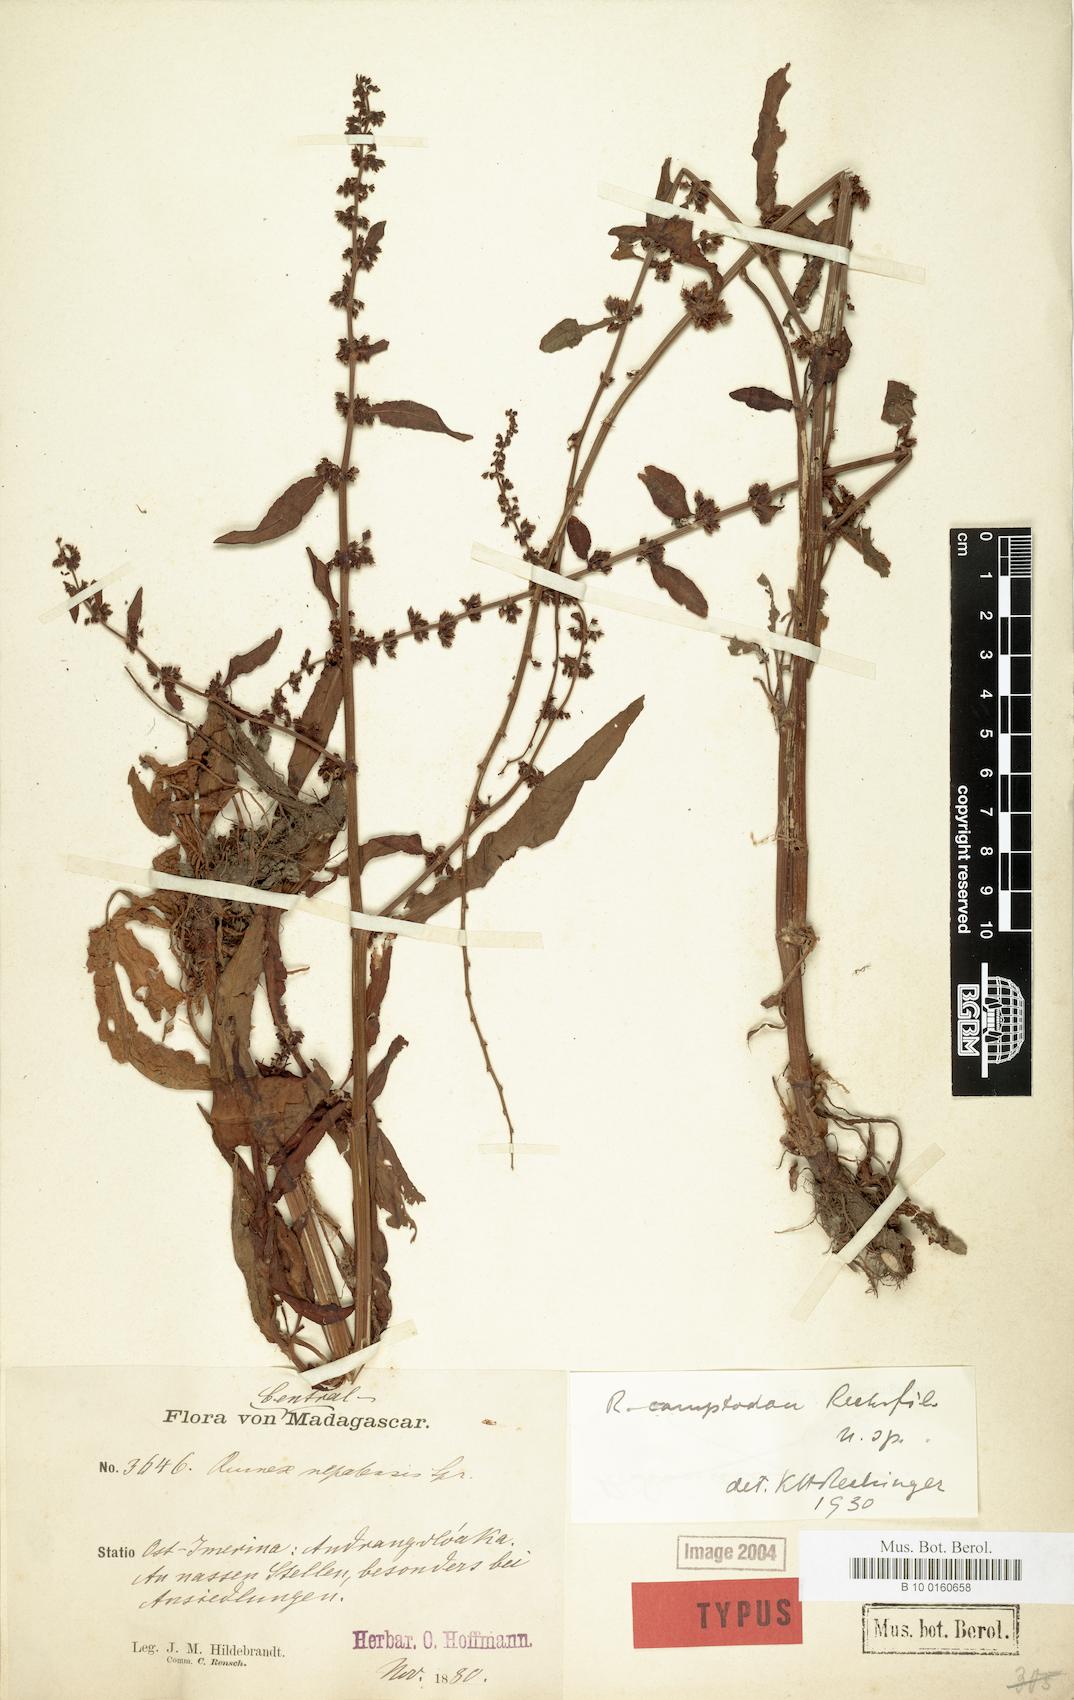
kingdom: Plantae
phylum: Tracheophyta
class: Magnoliopsida
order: Caryophyllales
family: Polygonaceae
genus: Rumex
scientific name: Rumex bequaertii
